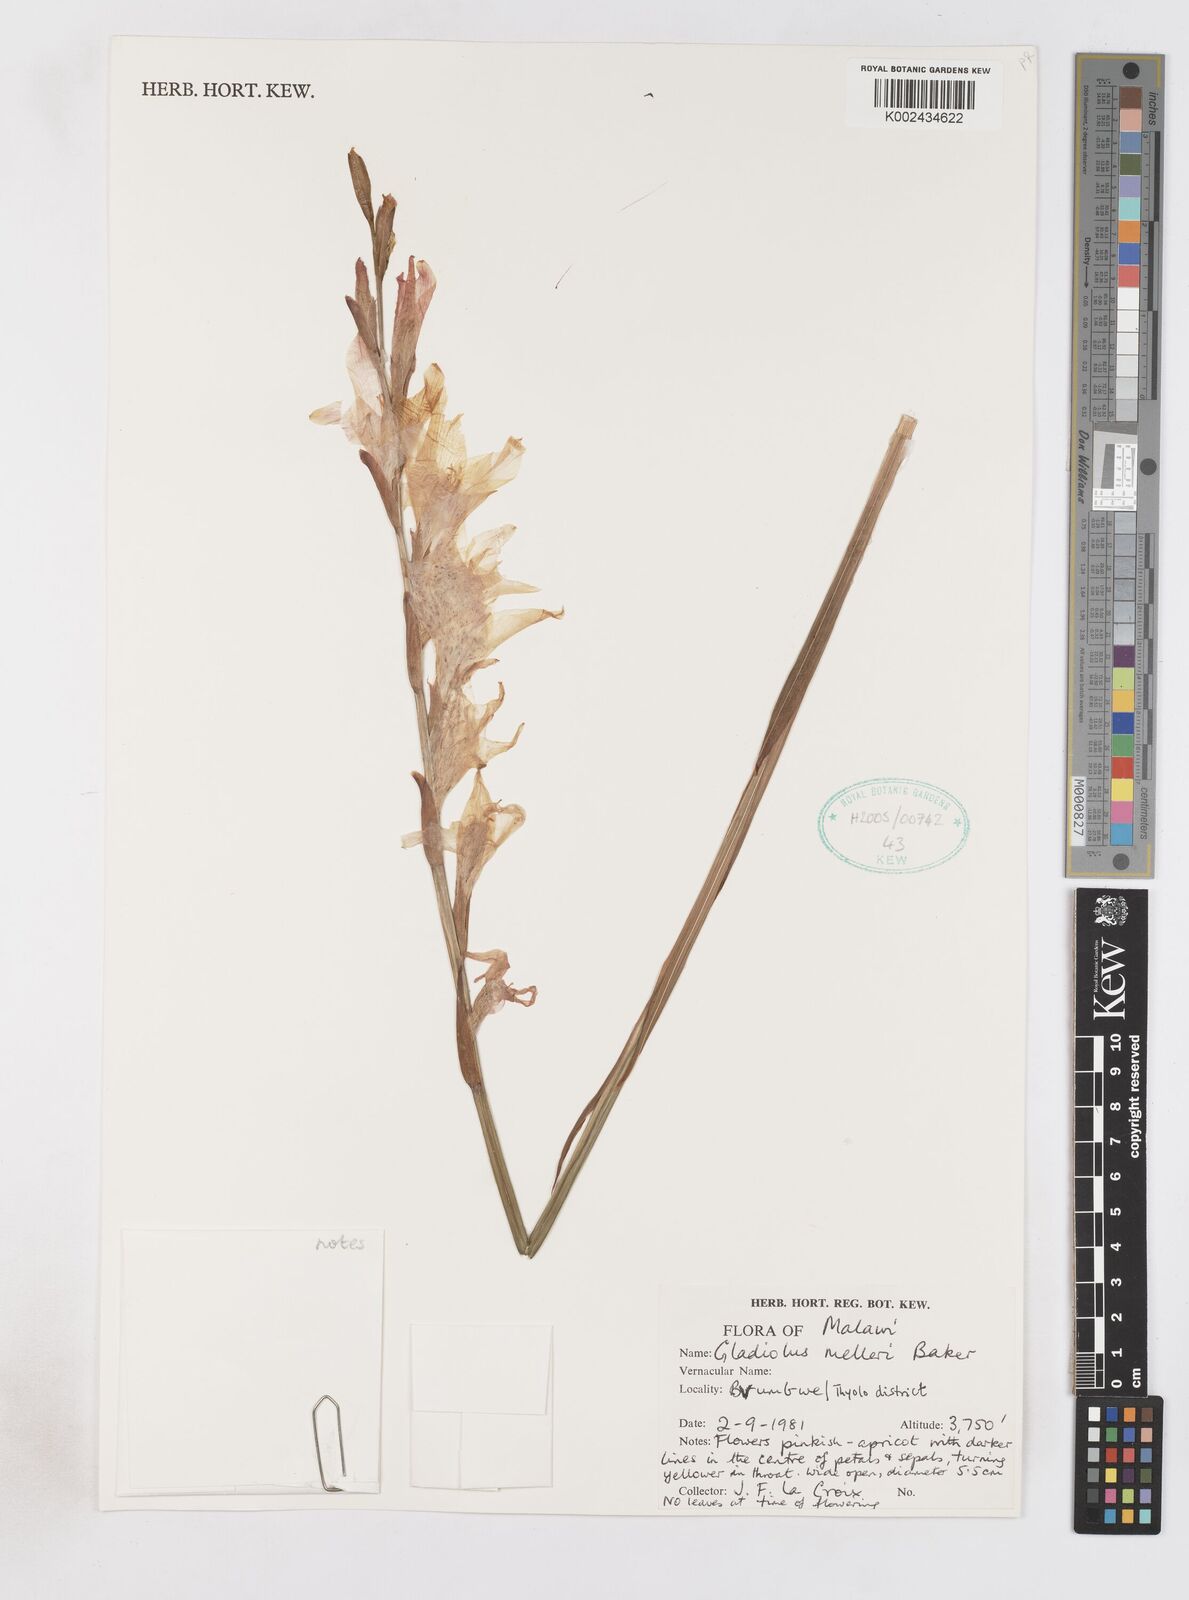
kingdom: Plantae
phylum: Tracheophyta
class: Liliopsida
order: Asparagales
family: Iridaceae
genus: Gladiolus
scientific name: Gladiolus melleri
